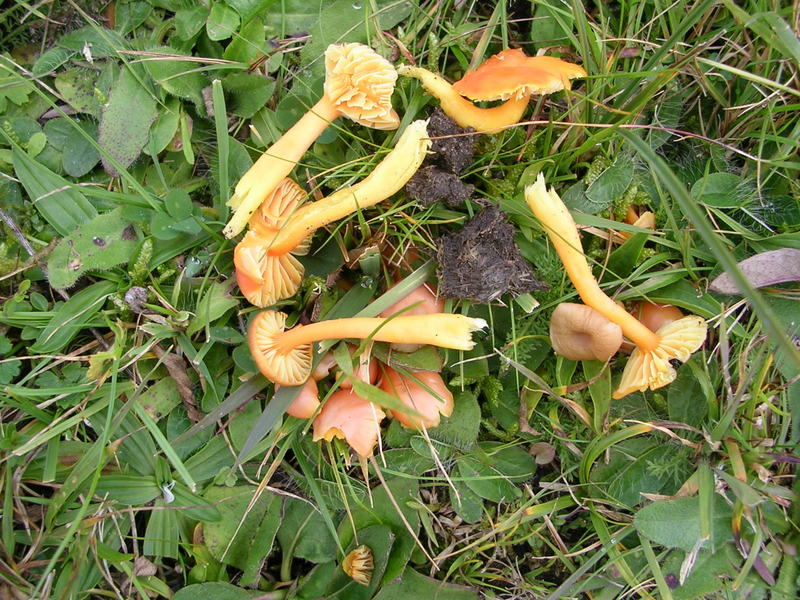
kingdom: Fungi
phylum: Basidiomycota
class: Agaricomycetes
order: Agaricales
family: Hygrophoraceae
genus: Hygrocybe
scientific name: Hygrocybe reidii
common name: honning-vokshat
